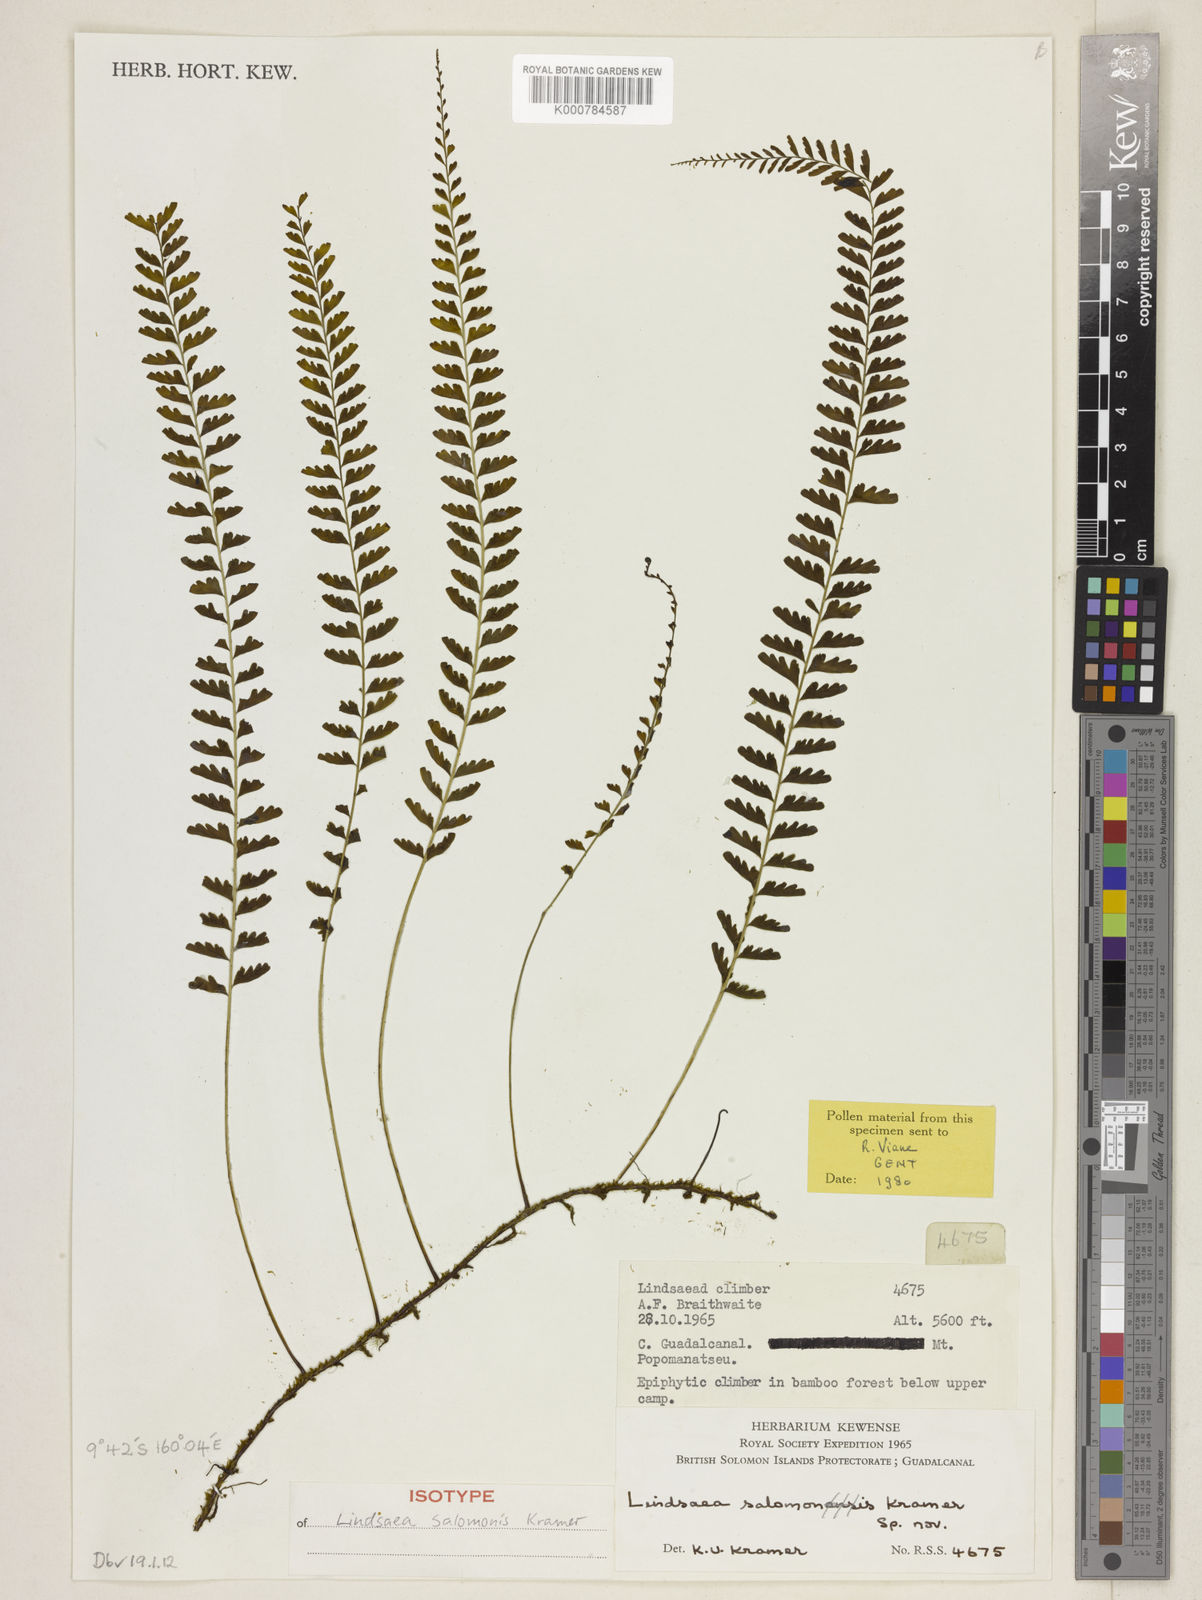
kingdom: Plantae
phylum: Tracheophyta
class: Polypodiopsida
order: Polypodiales
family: Lindsaeaceae
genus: Lindsaea
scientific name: Lindsaea salomonis
